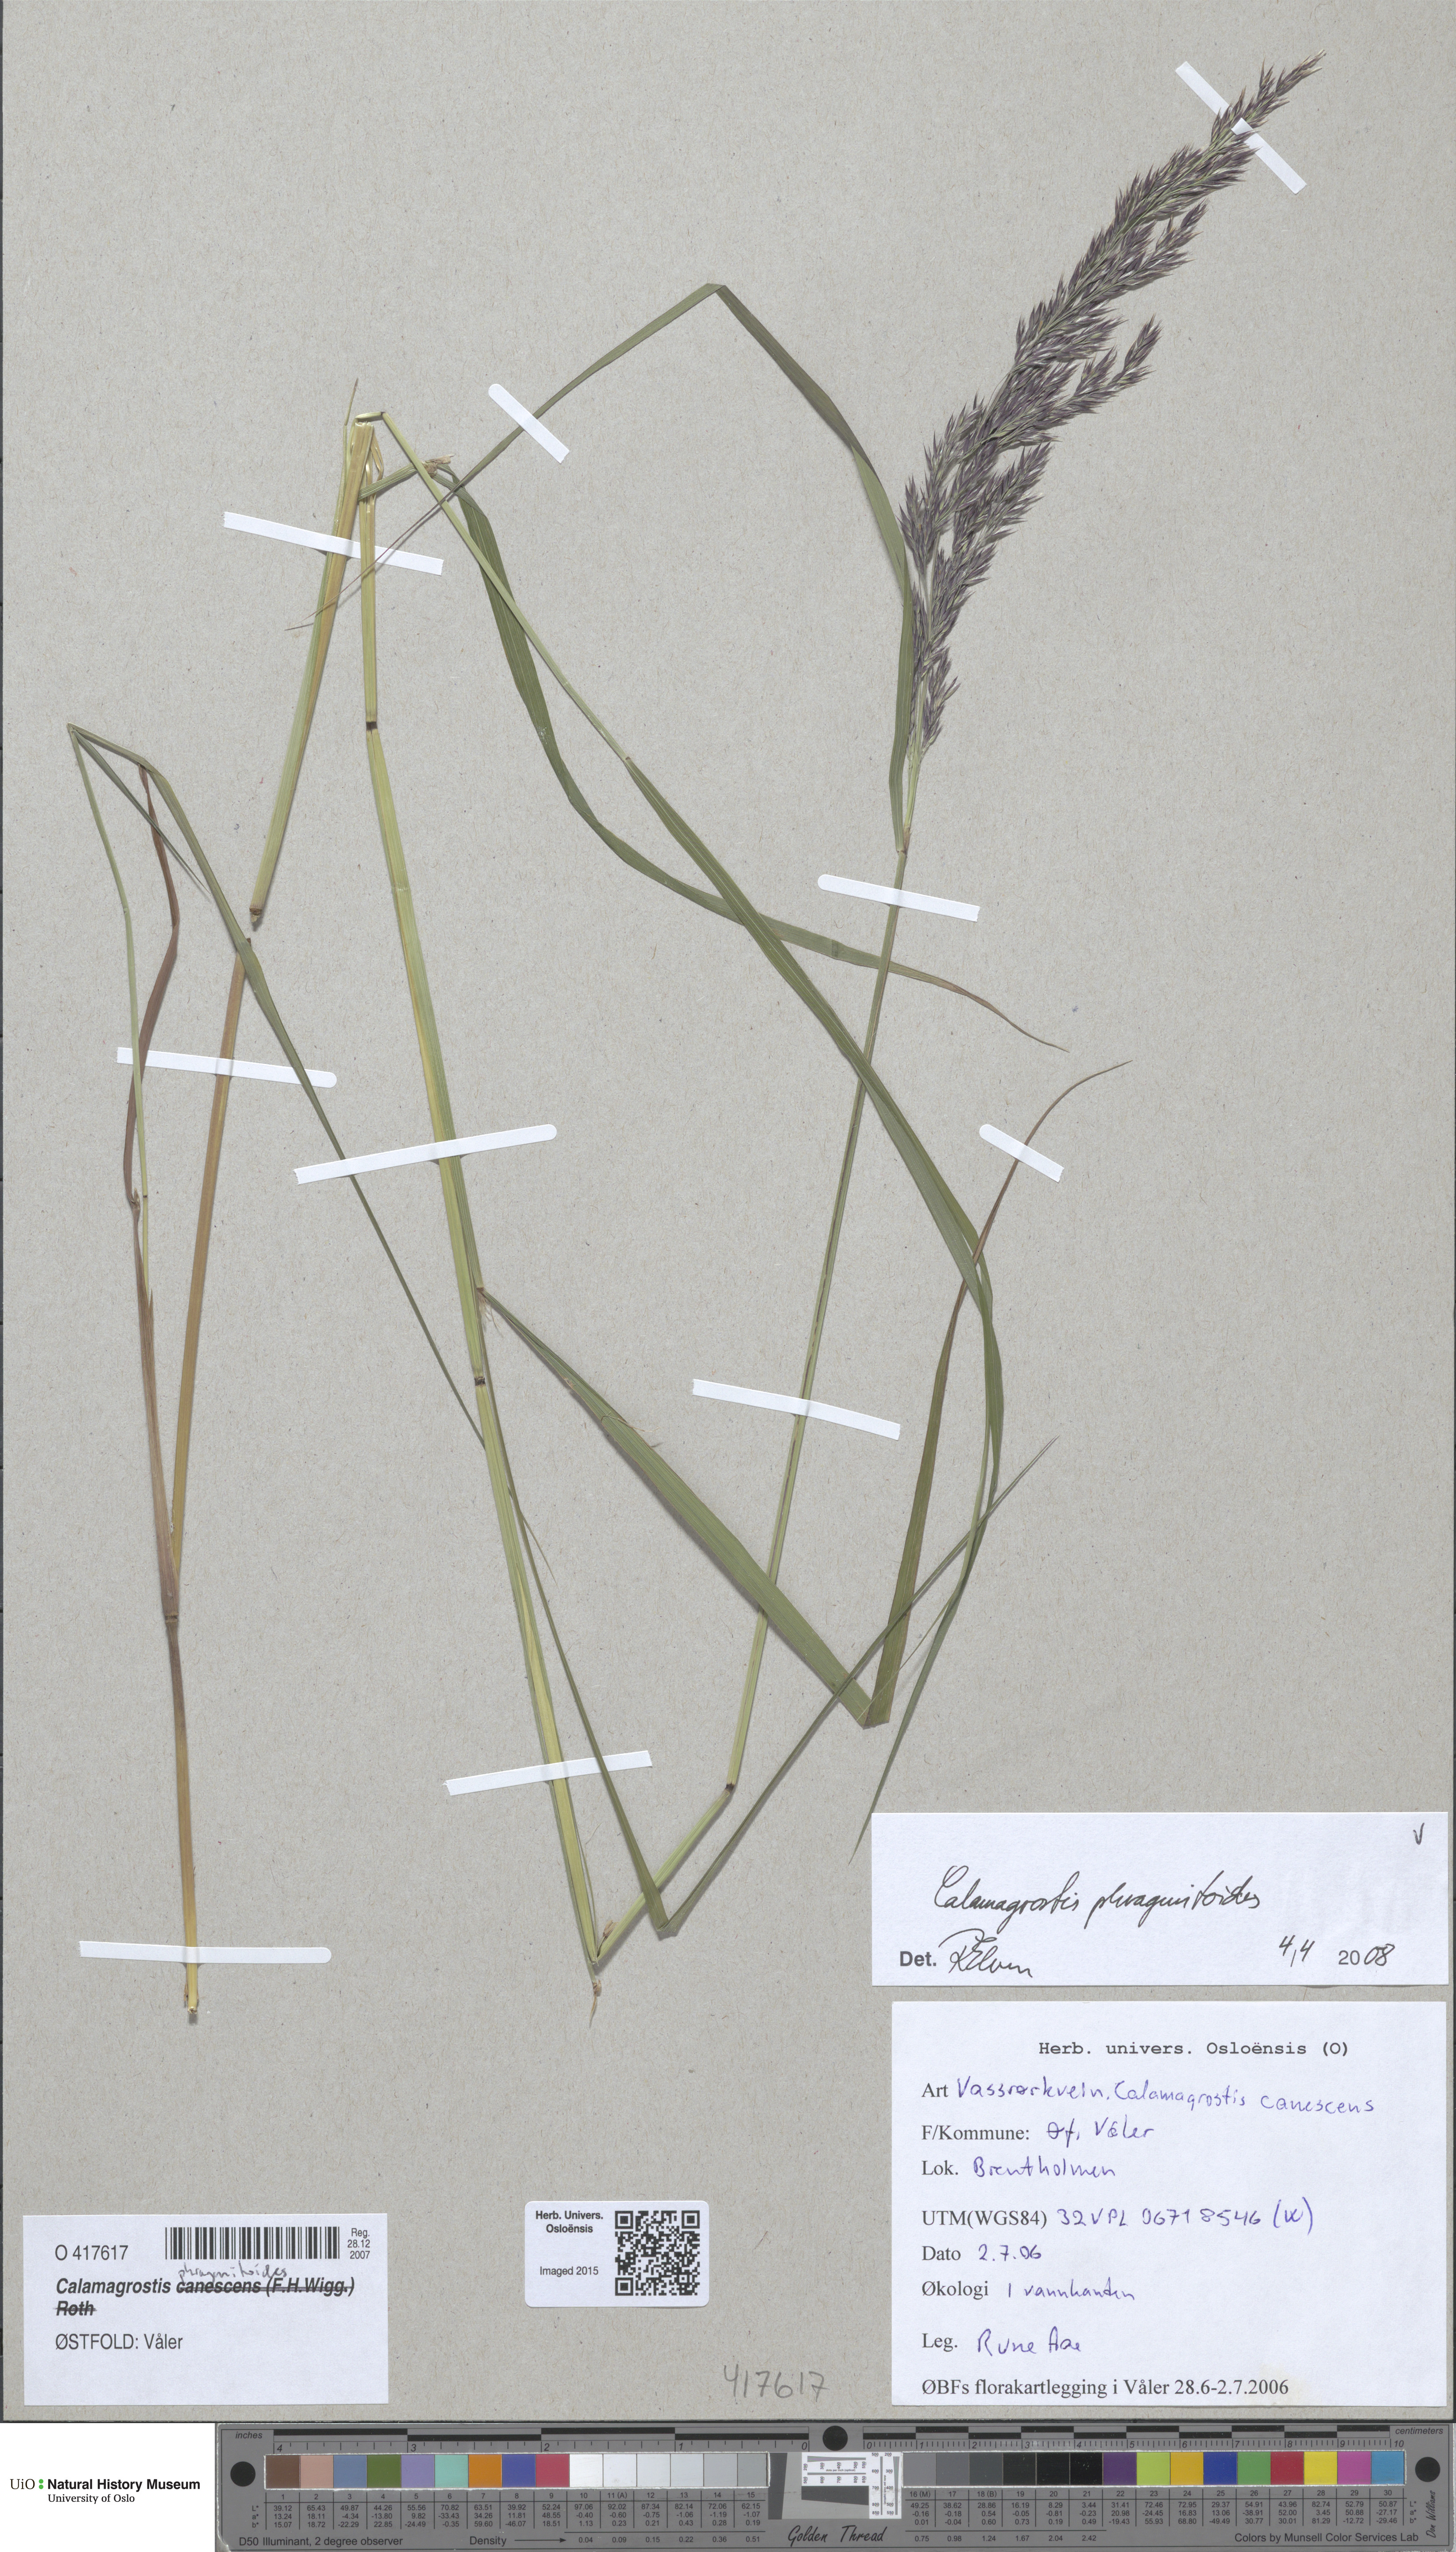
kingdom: Plantae
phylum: Tracheophyta
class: Liliopsida
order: Poales
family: Poaceae
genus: Calamagrostis
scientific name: Calamagrostis purpurea
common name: Scandinavian small-reed
